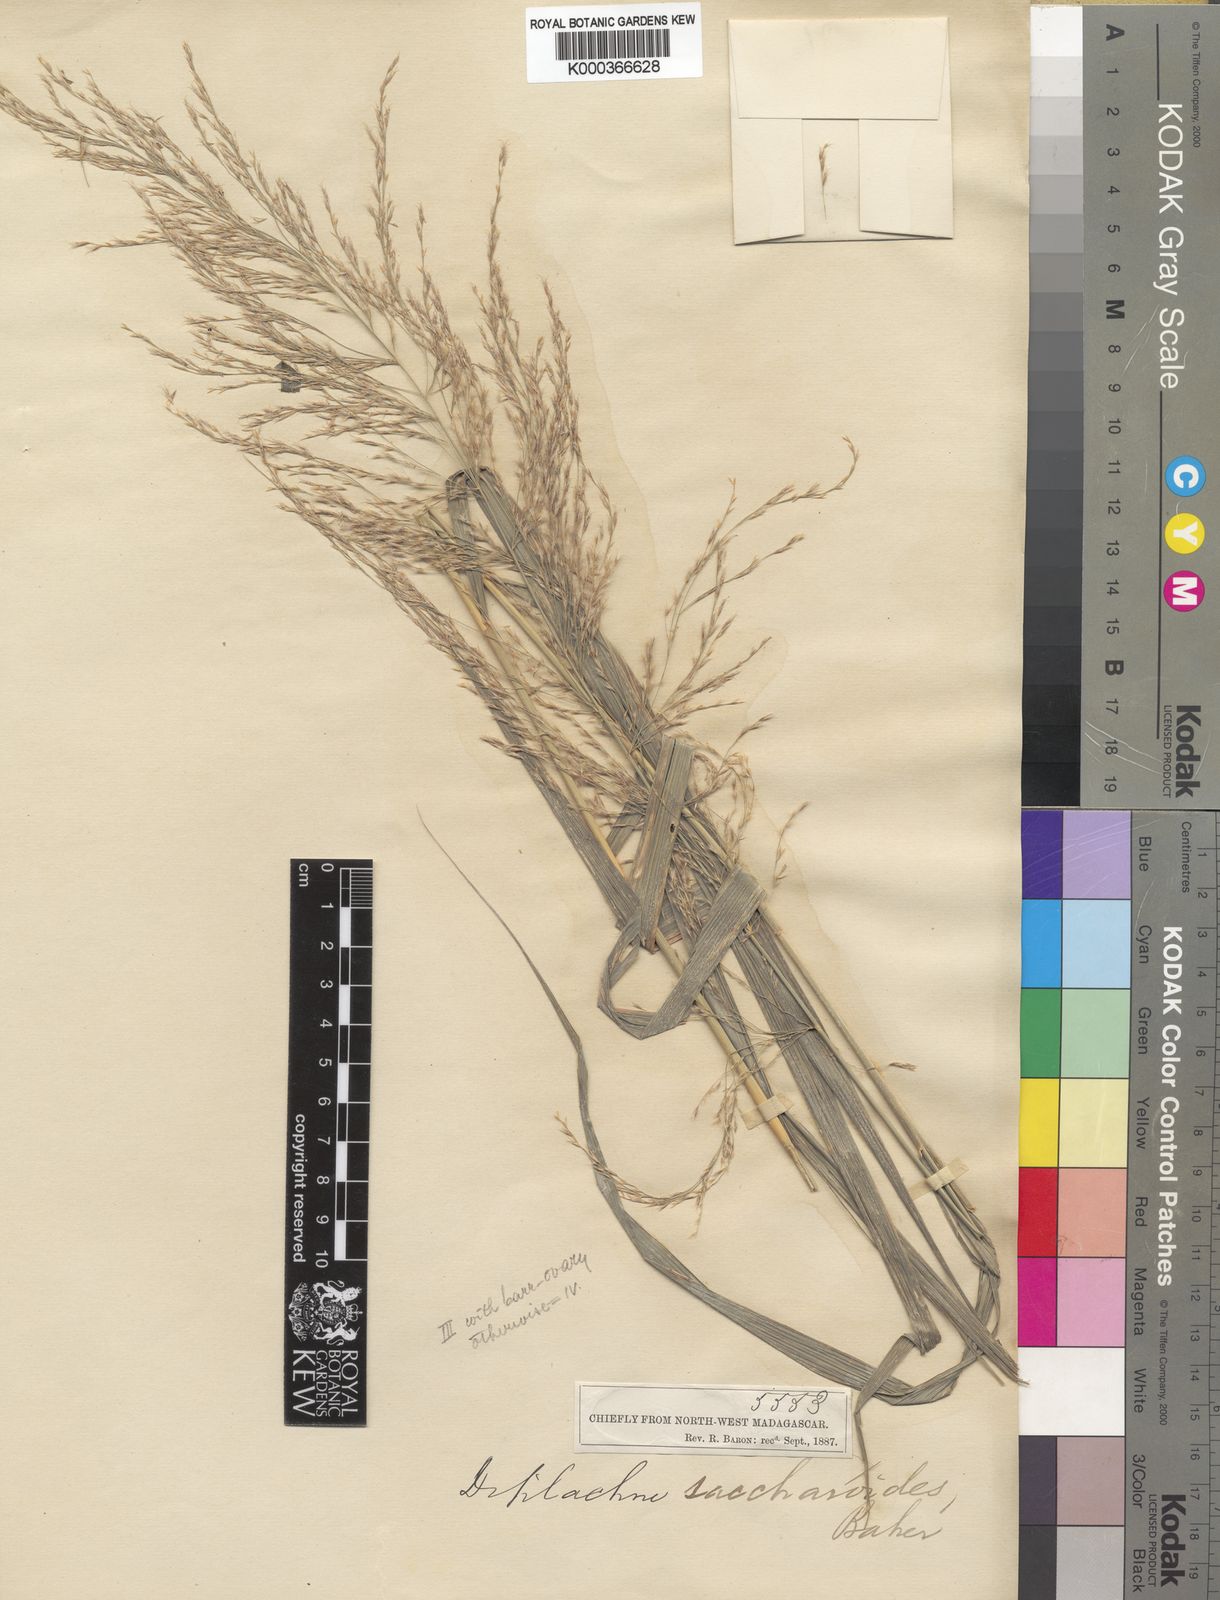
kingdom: Plantae
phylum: Tracheophyta
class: Liliopsida
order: Poales
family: Poaceae
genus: Neyraudia
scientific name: Neyraudia arundinacea
